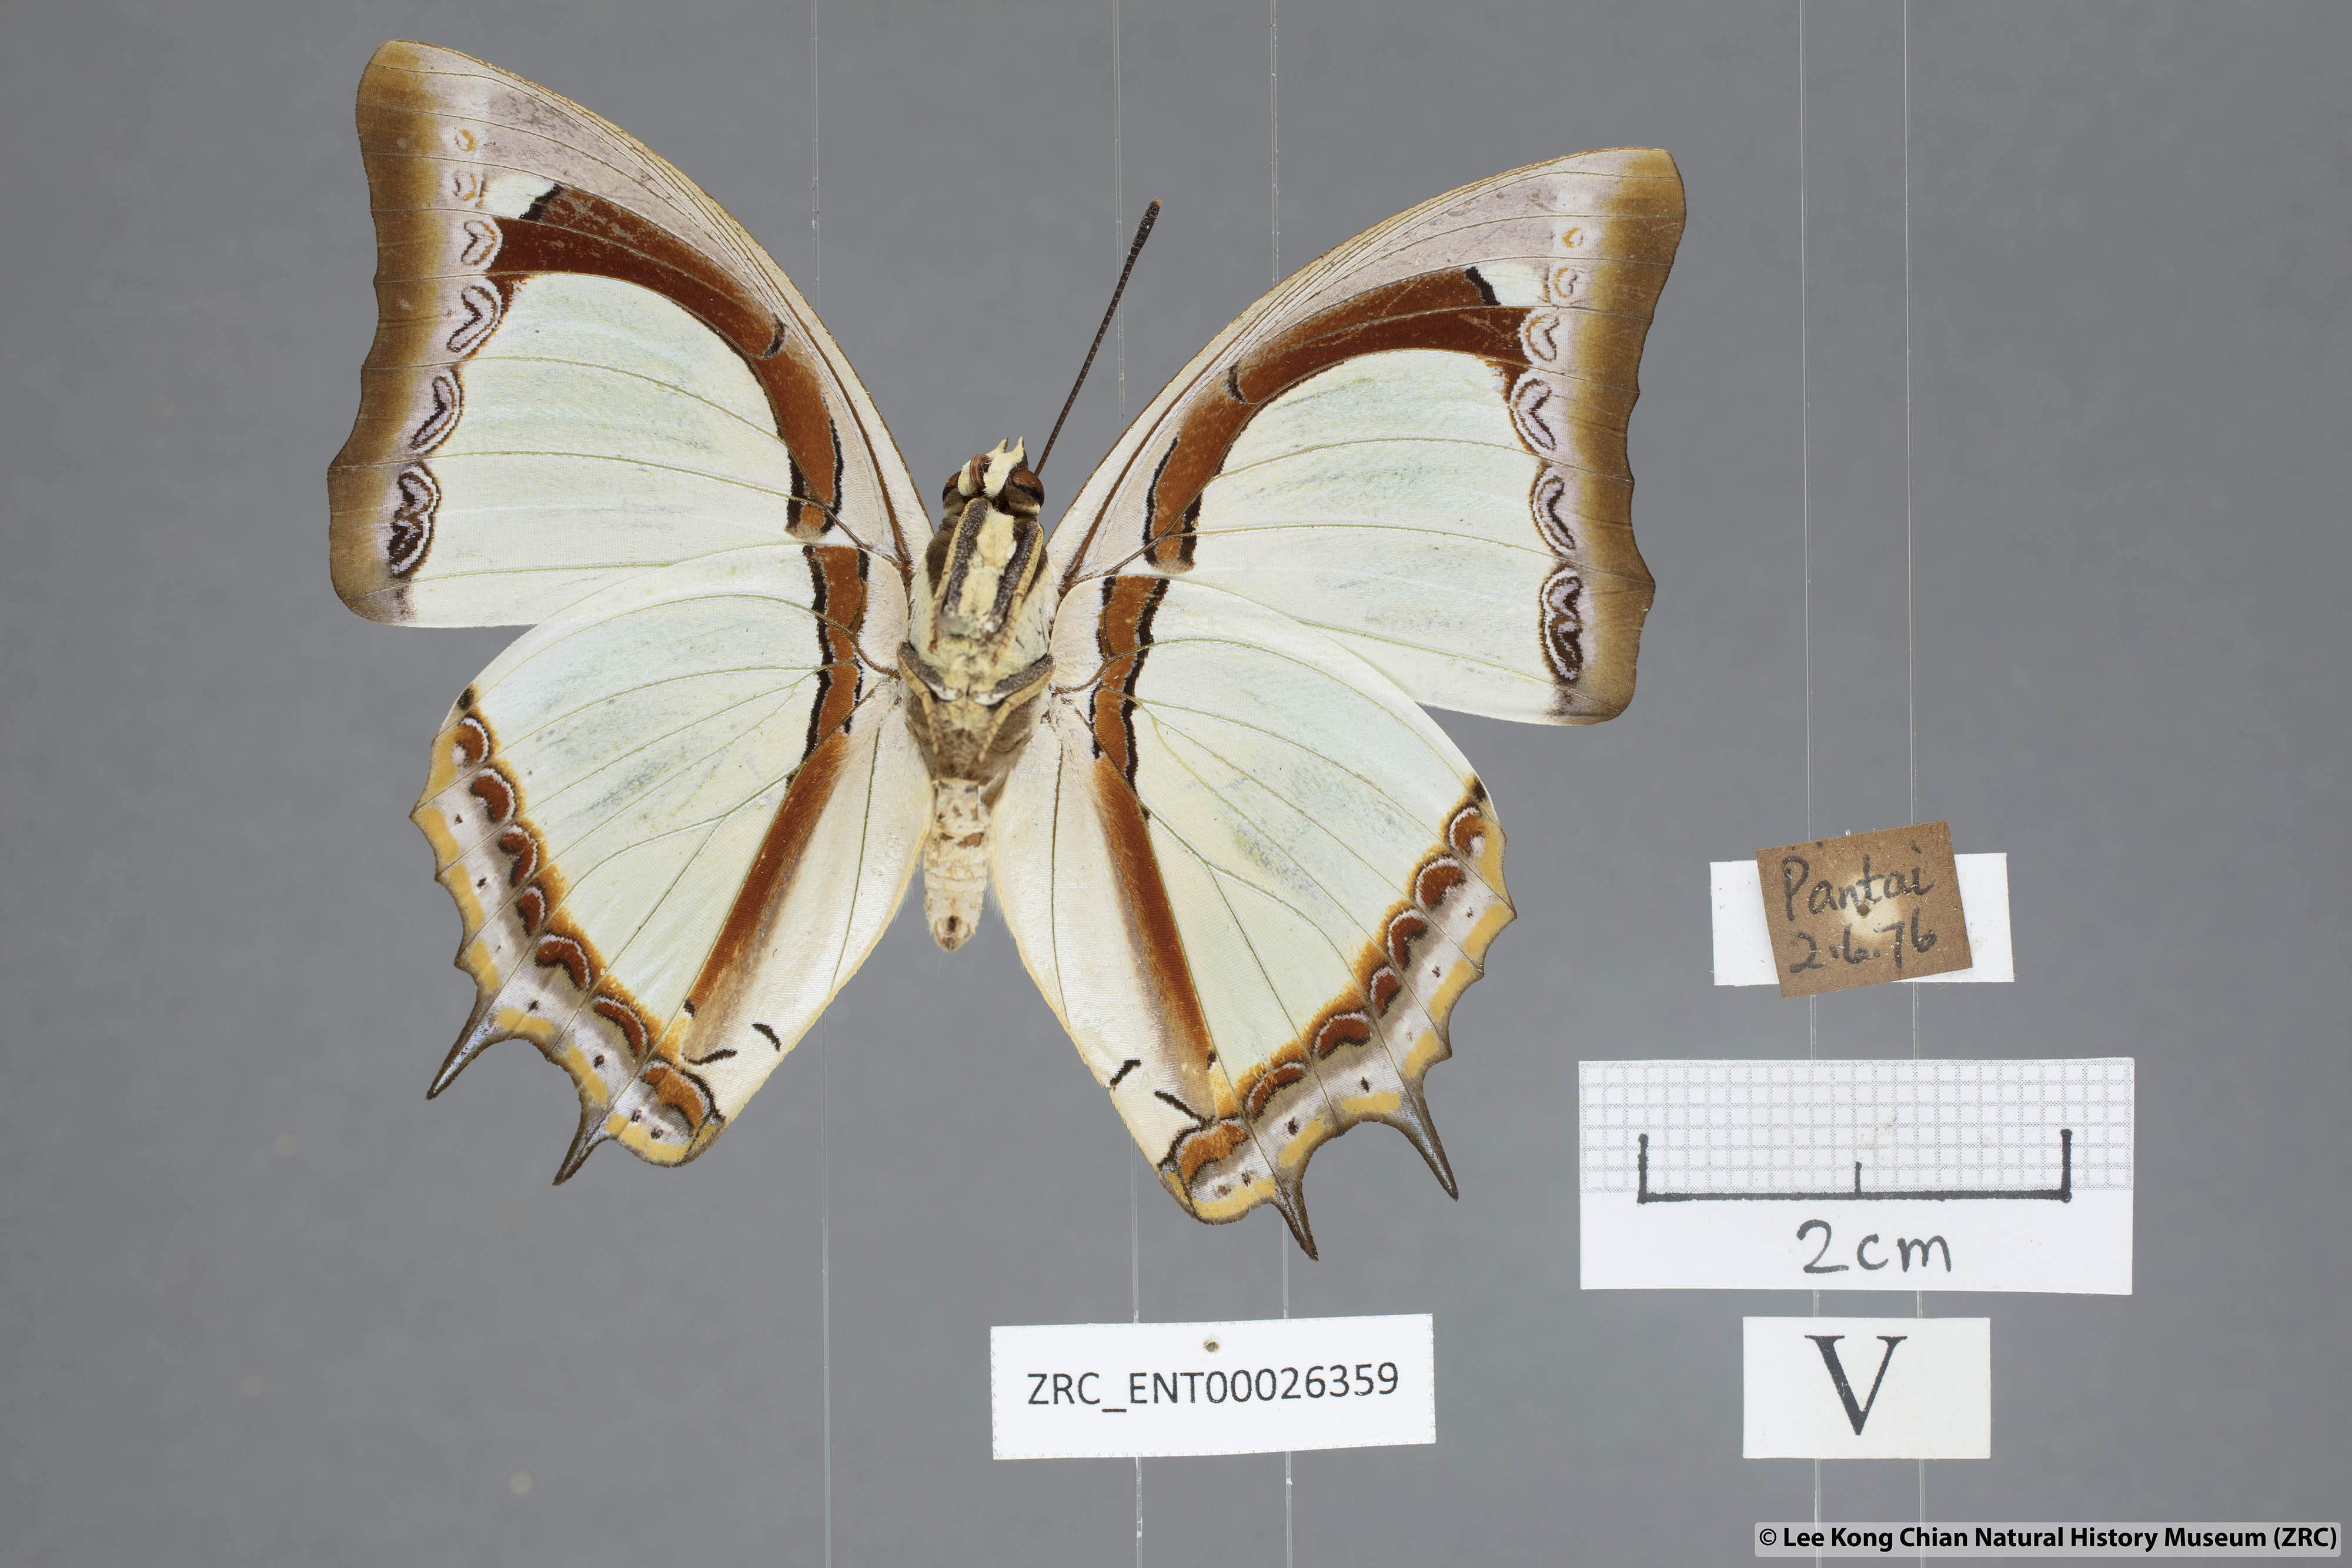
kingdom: Animalia
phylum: Arthropoda
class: Insecta
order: Lepidoptera
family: Nymphalidae
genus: Polyura
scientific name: Polyura jalysus
